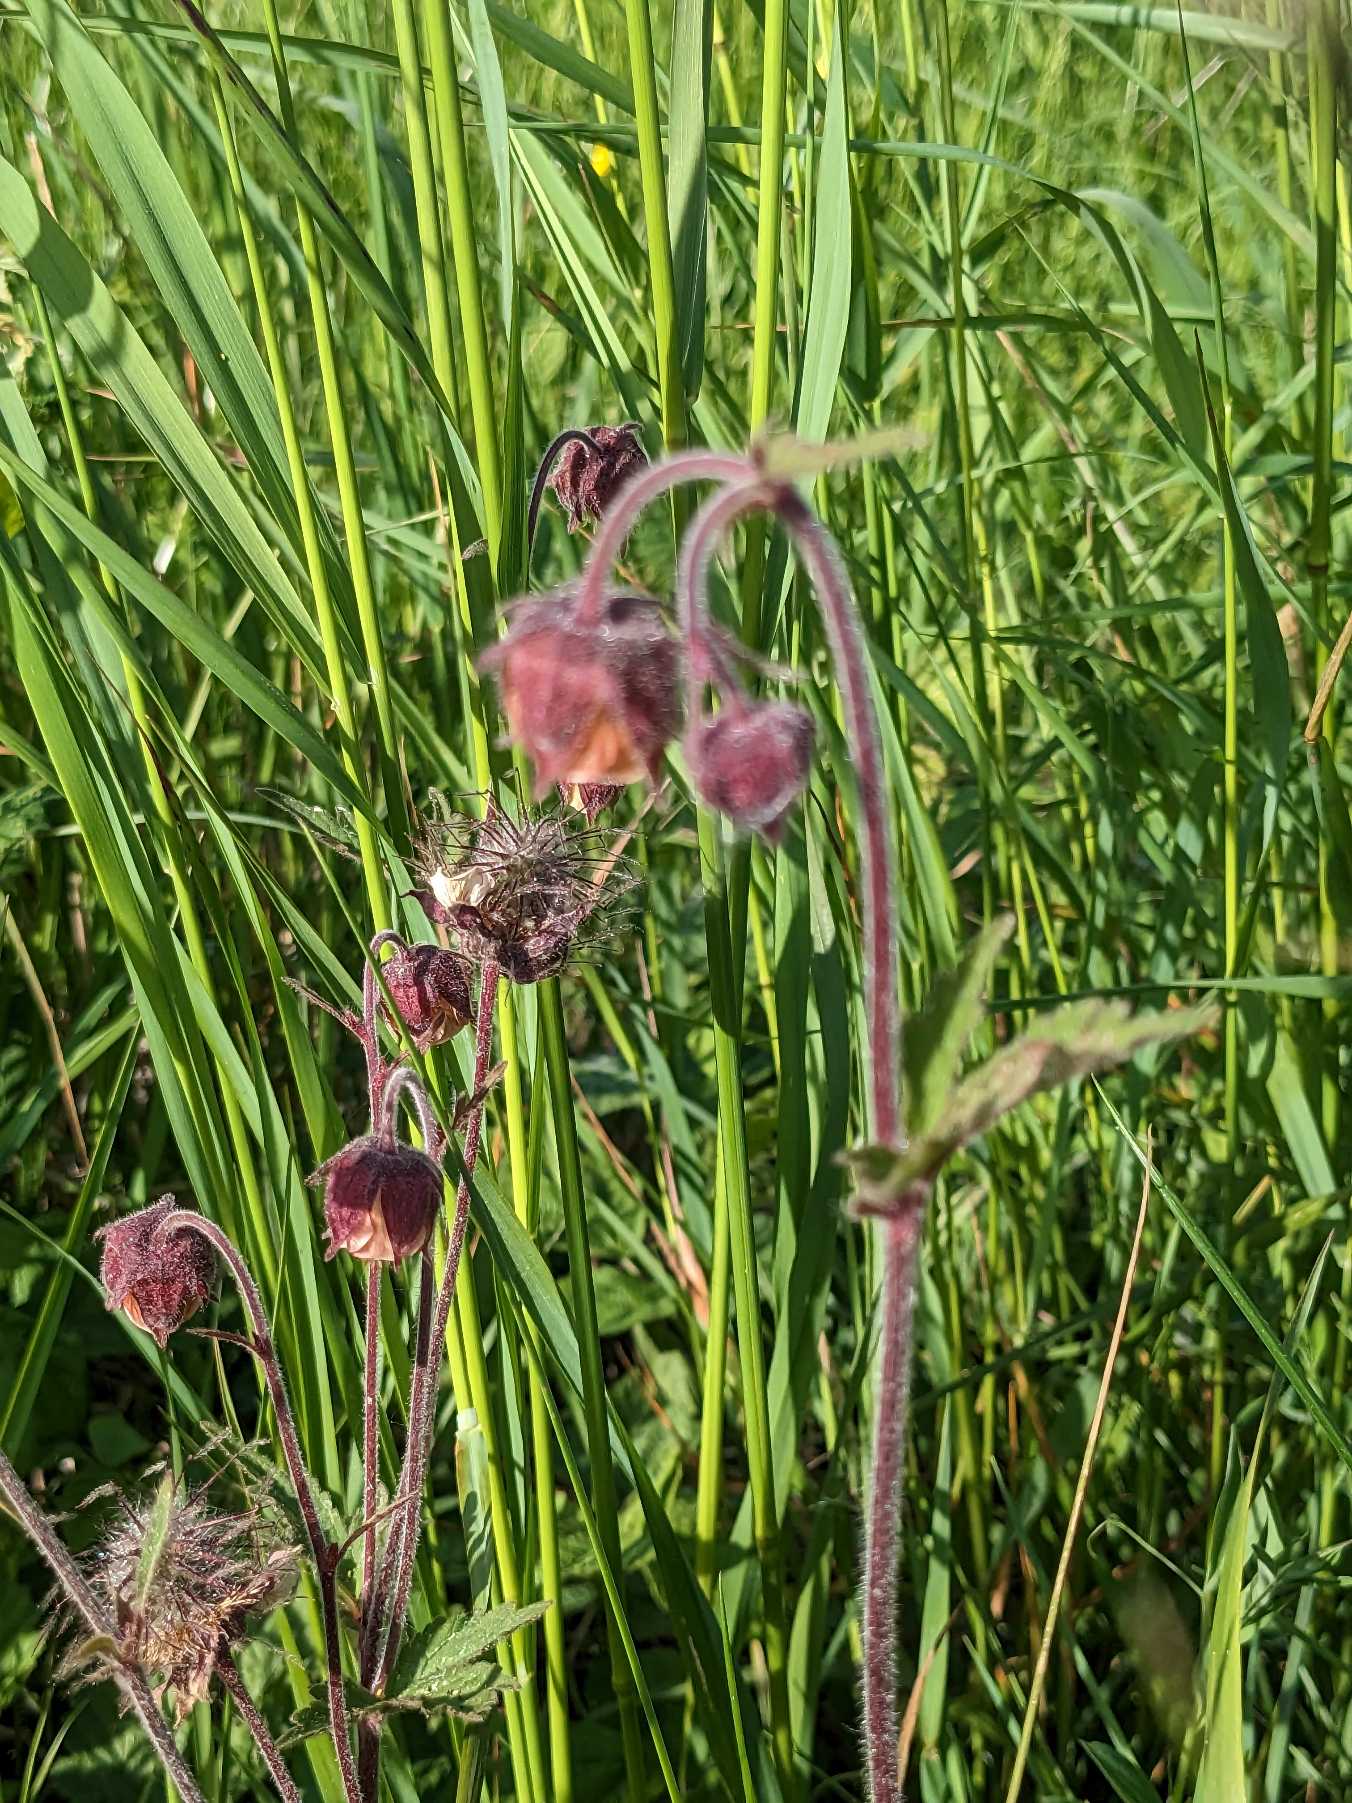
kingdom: Plantae
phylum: Tracheophyta
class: Magnoliopsida
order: Rosales
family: Rosaceae
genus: Geum
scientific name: Geum rivale
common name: Eng-nellikerod
